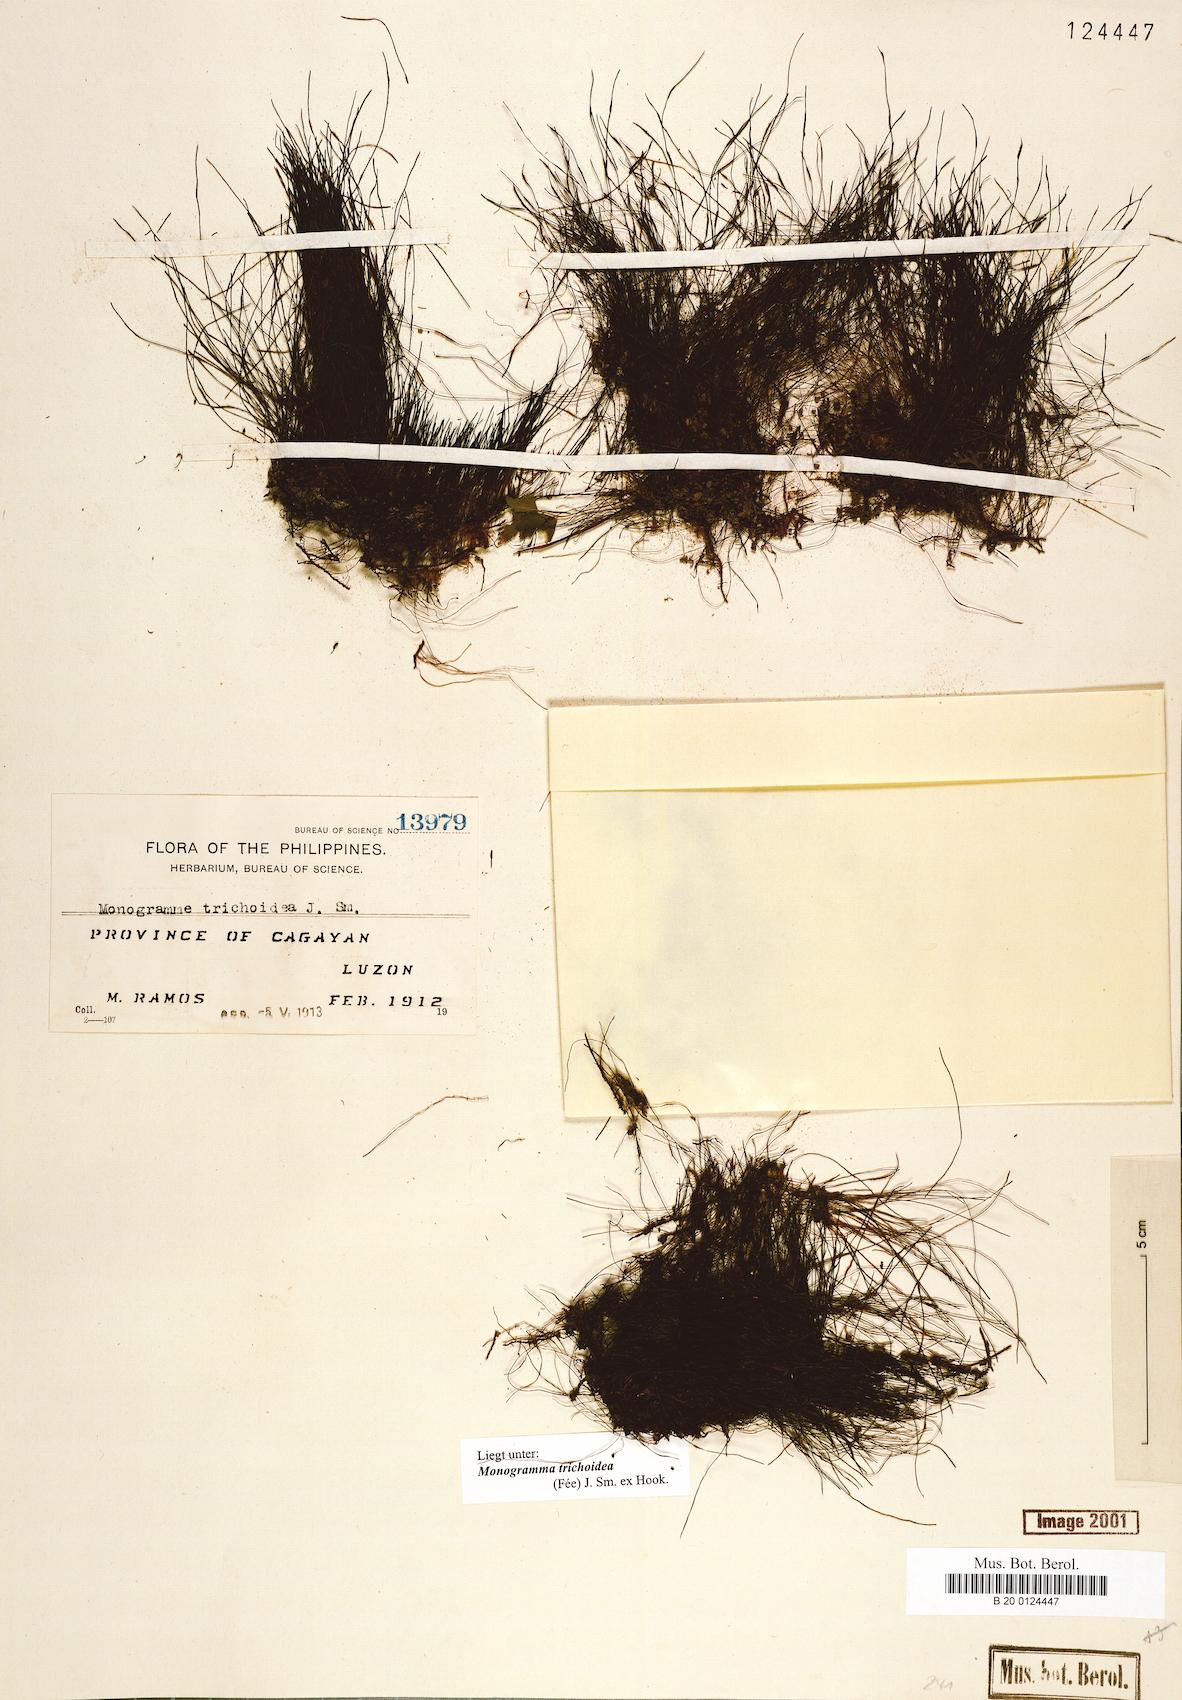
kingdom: Plantae
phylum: Tracheophyta
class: Polypodiopsida
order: Polypodiales
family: Pteridaceae
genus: Vaginularia
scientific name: Vaginularia trichoidea
